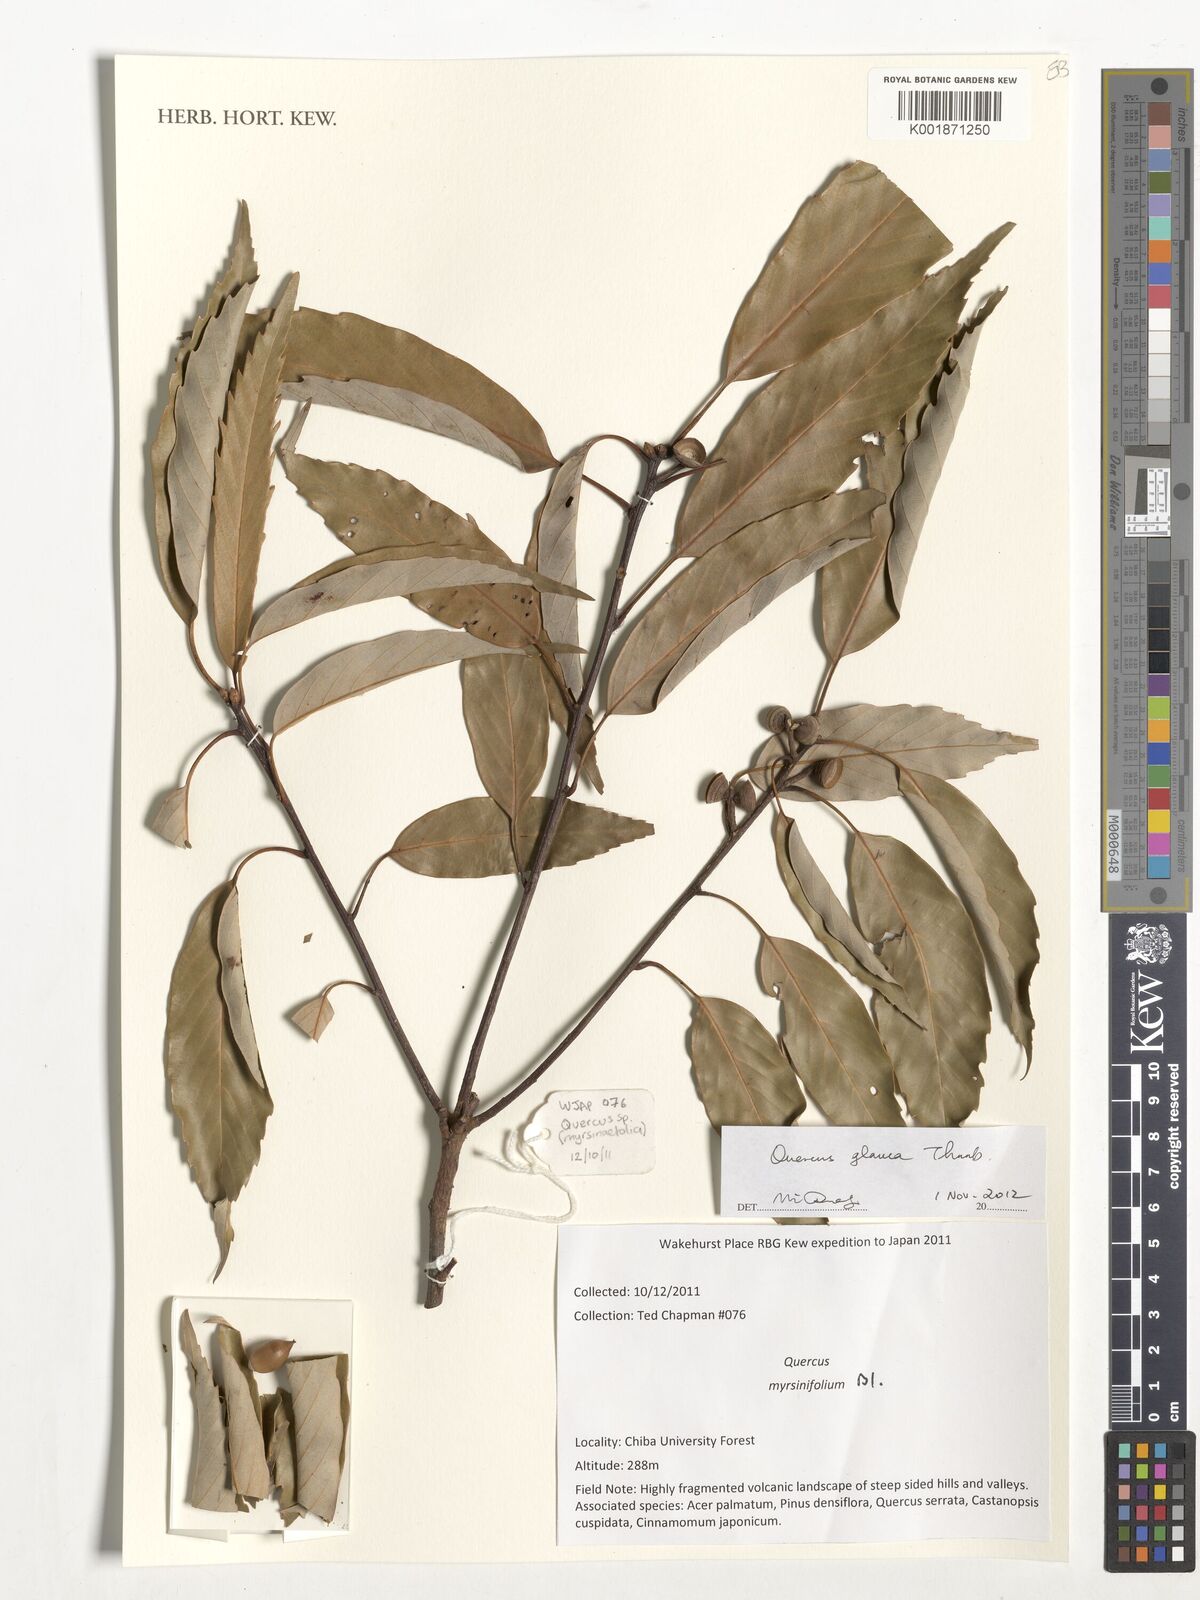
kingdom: Plantae
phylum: Tracheophyta
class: Magnoliopsida
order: Fagales
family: Fagaceae
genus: Quercus
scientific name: Quercus glauca
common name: Ring-cup oak
